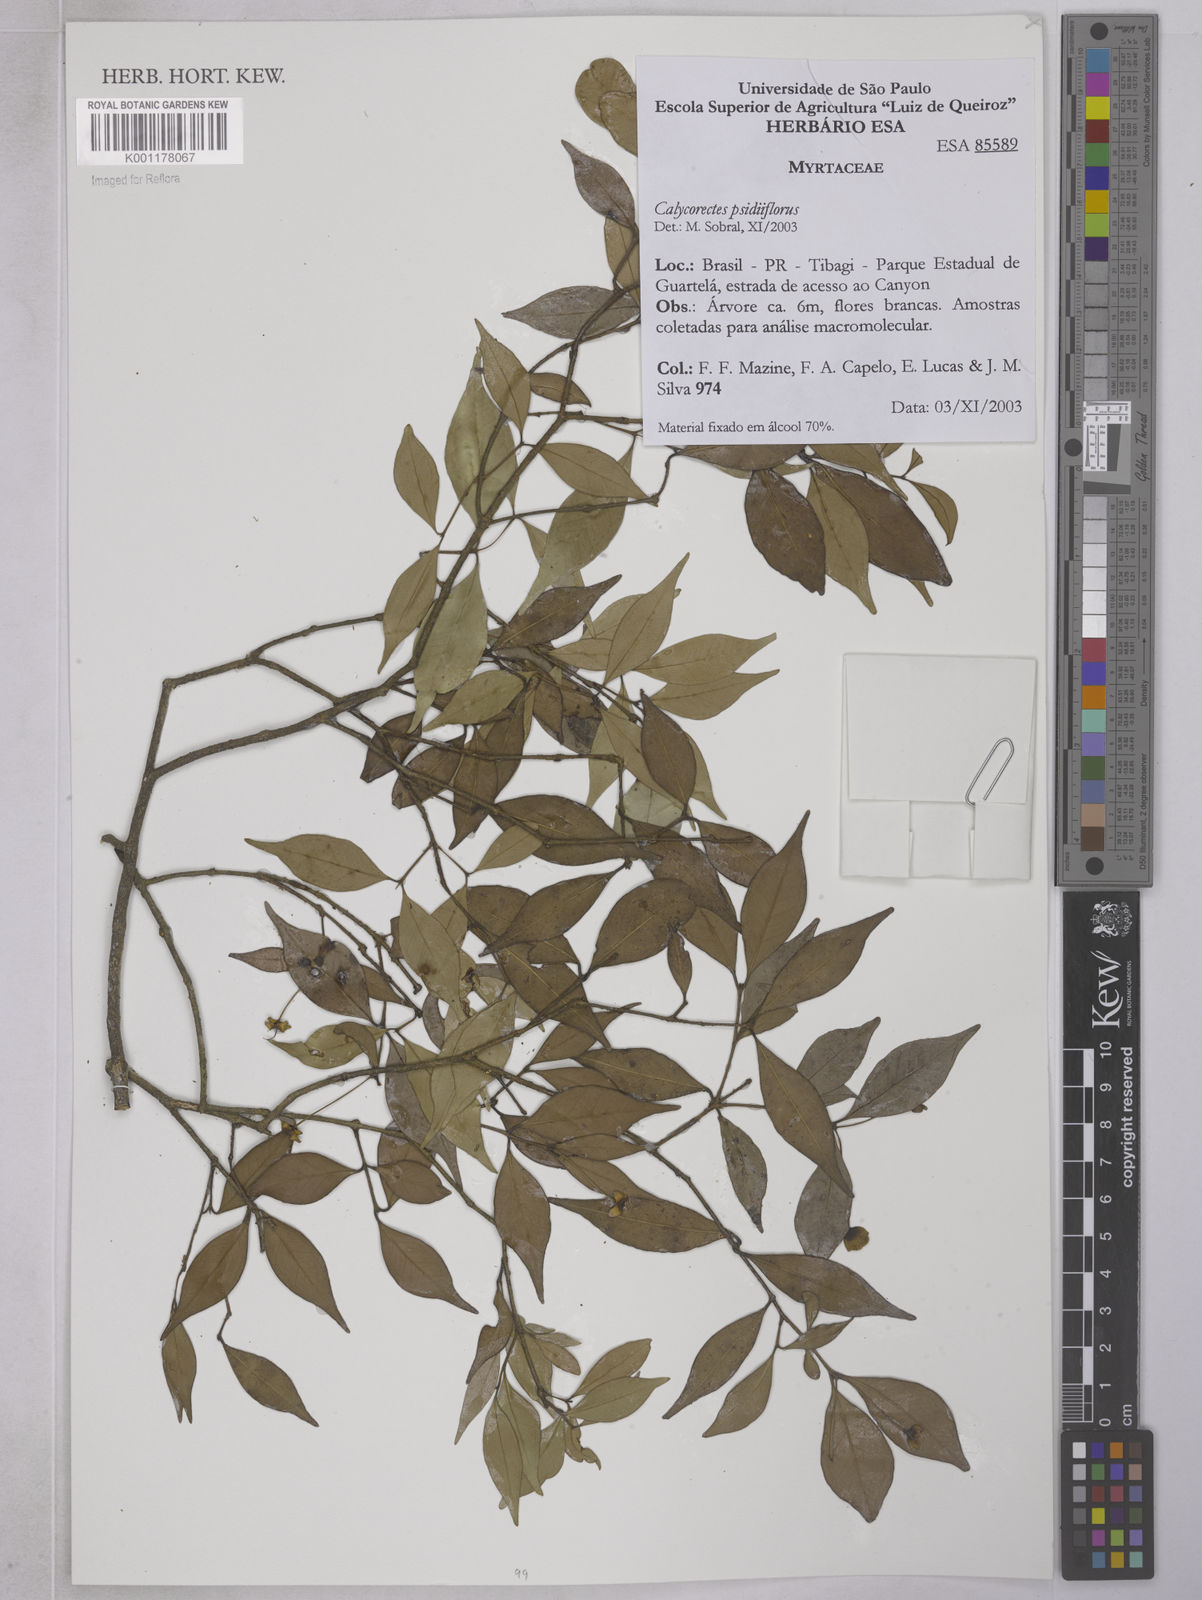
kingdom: Plantae
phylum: Tracheophyta
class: Magnoliopsida
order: Myrtales
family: Myrtaceae
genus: Eugenia
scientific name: Eugenia subterminalis
